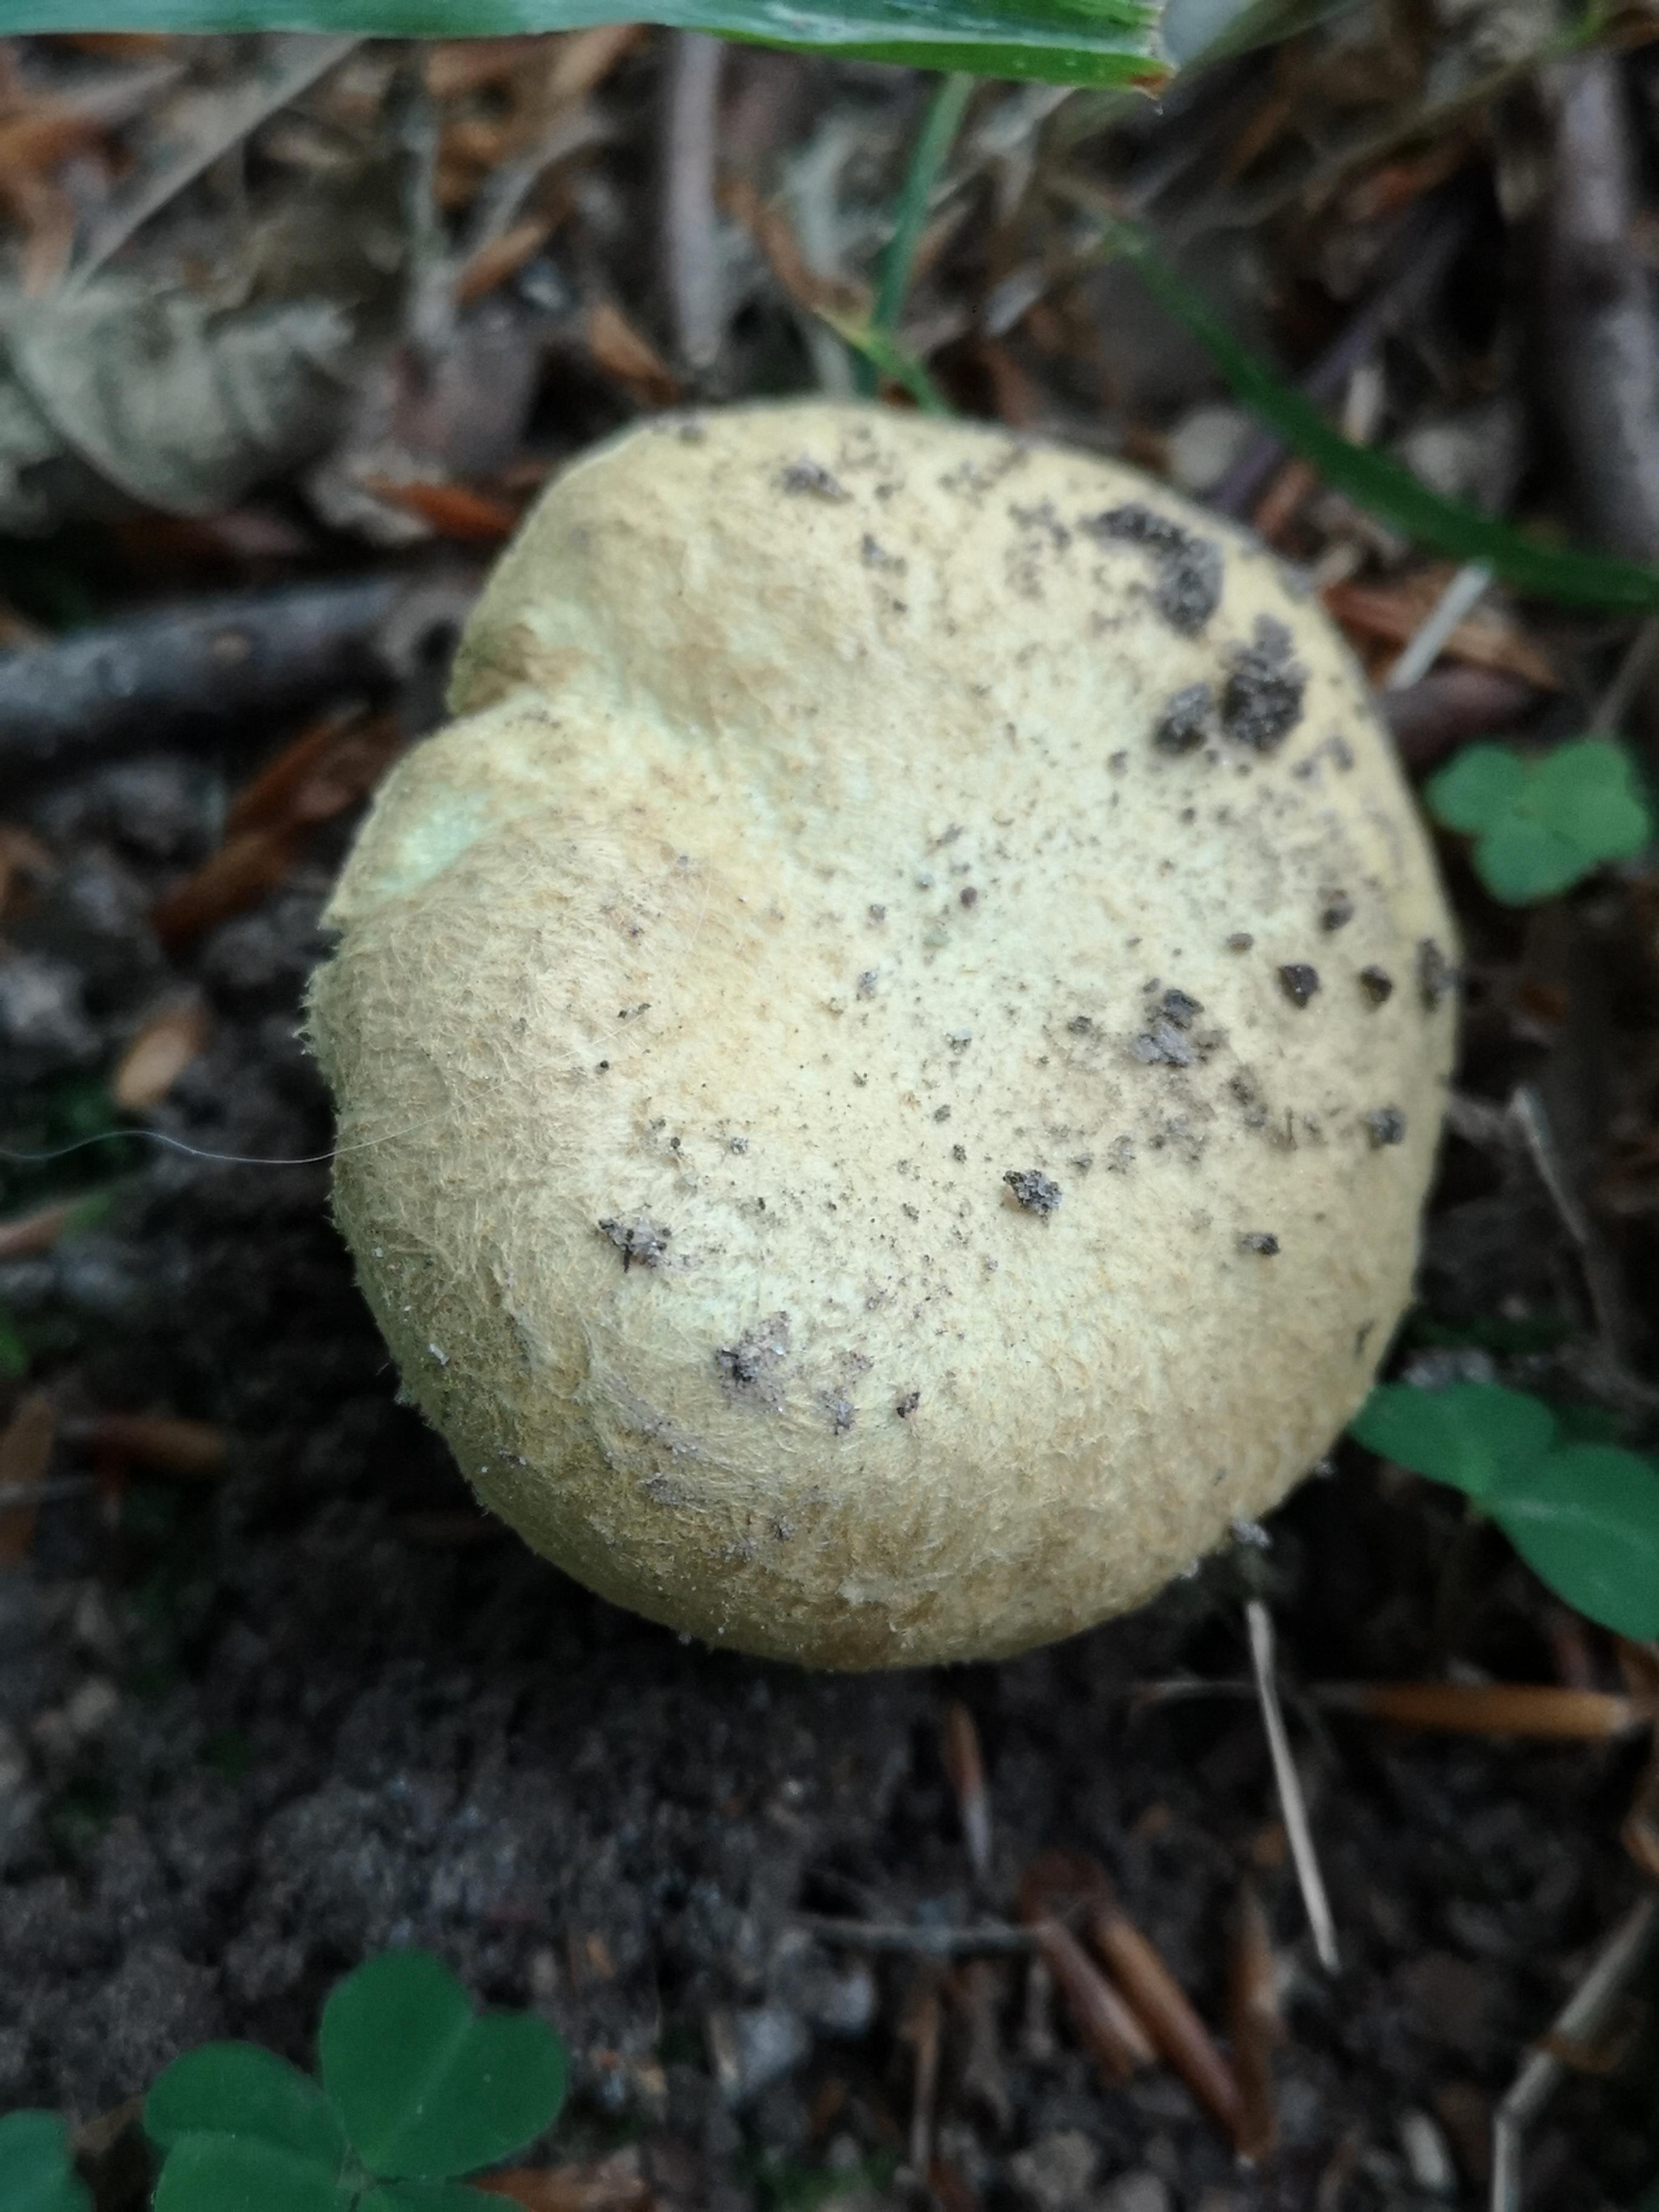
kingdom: Fungi
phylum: Basidiomycota
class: Agaricomycetes
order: Boletales
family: Gyroporaceae
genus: Gyroporus
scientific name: Gyroporus cyanescens
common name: blånende kammerrørhat
